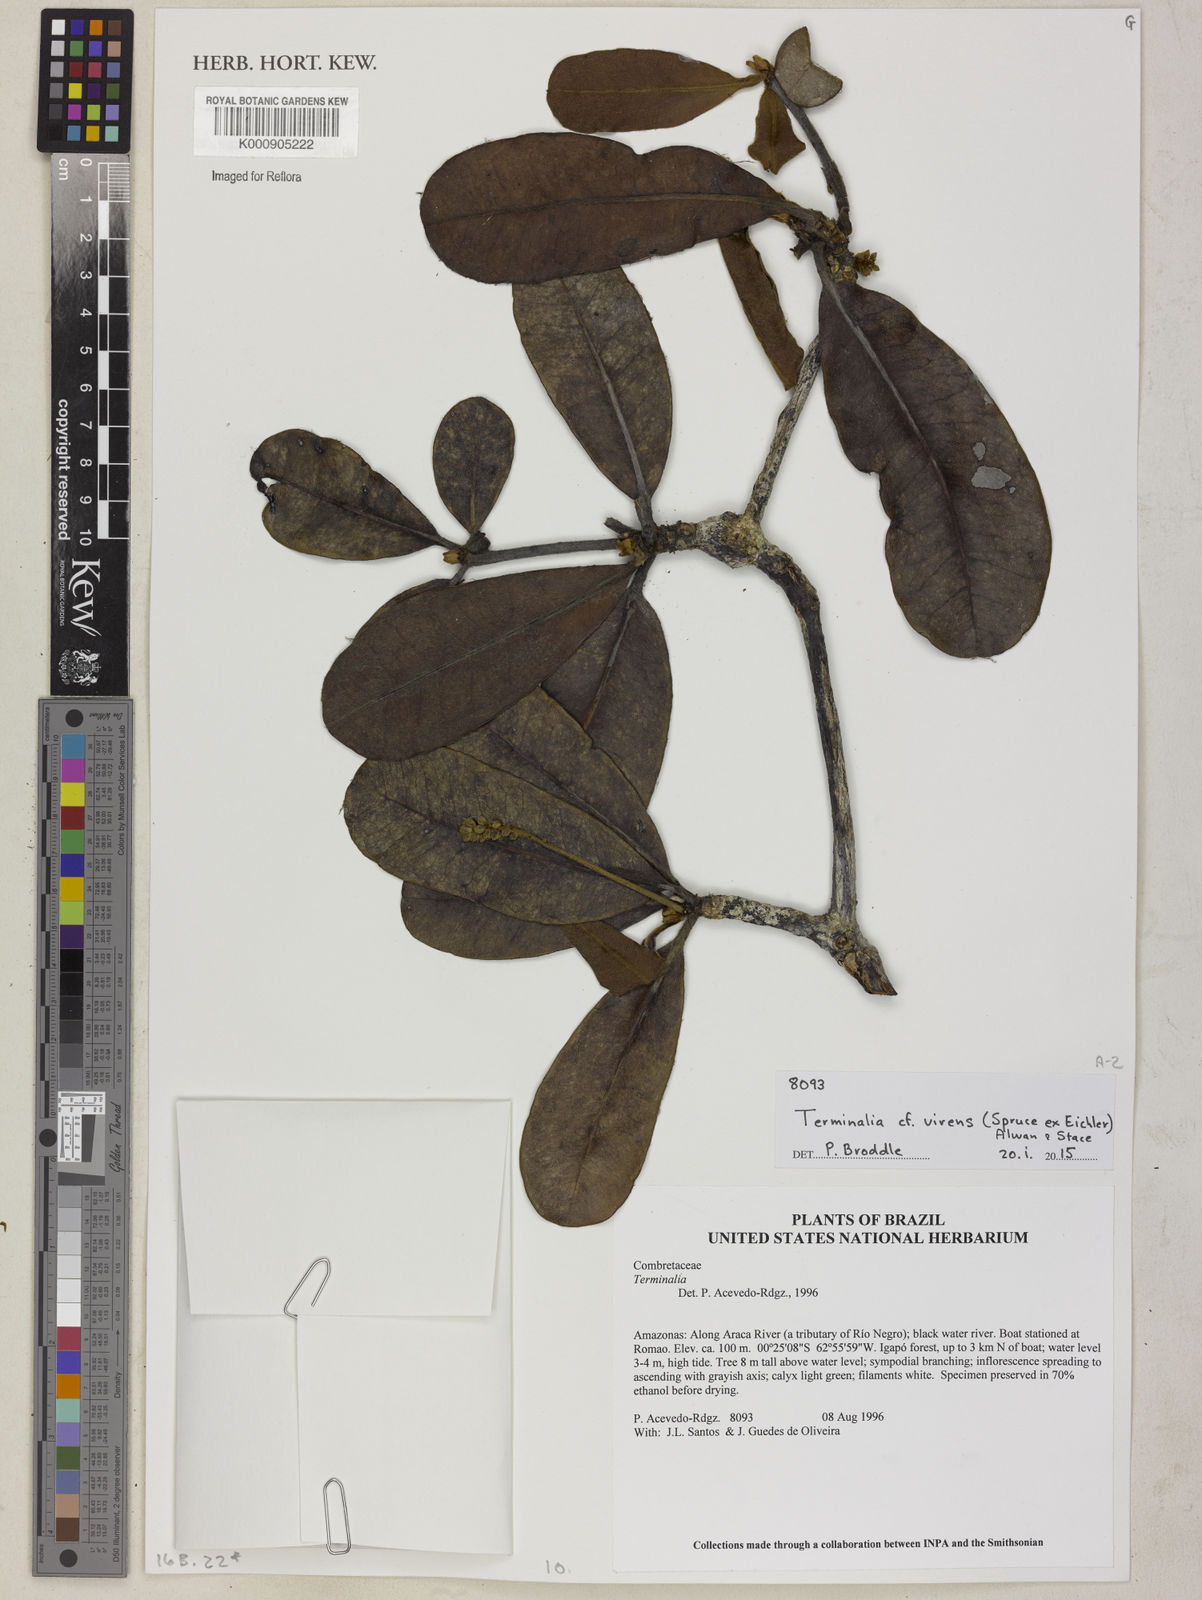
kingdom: Plantae
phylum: Tracheophyta
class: Magnoliopsida
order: Myrtales
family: Combretaceae
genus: Terminalia
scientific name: Terminalia virens
